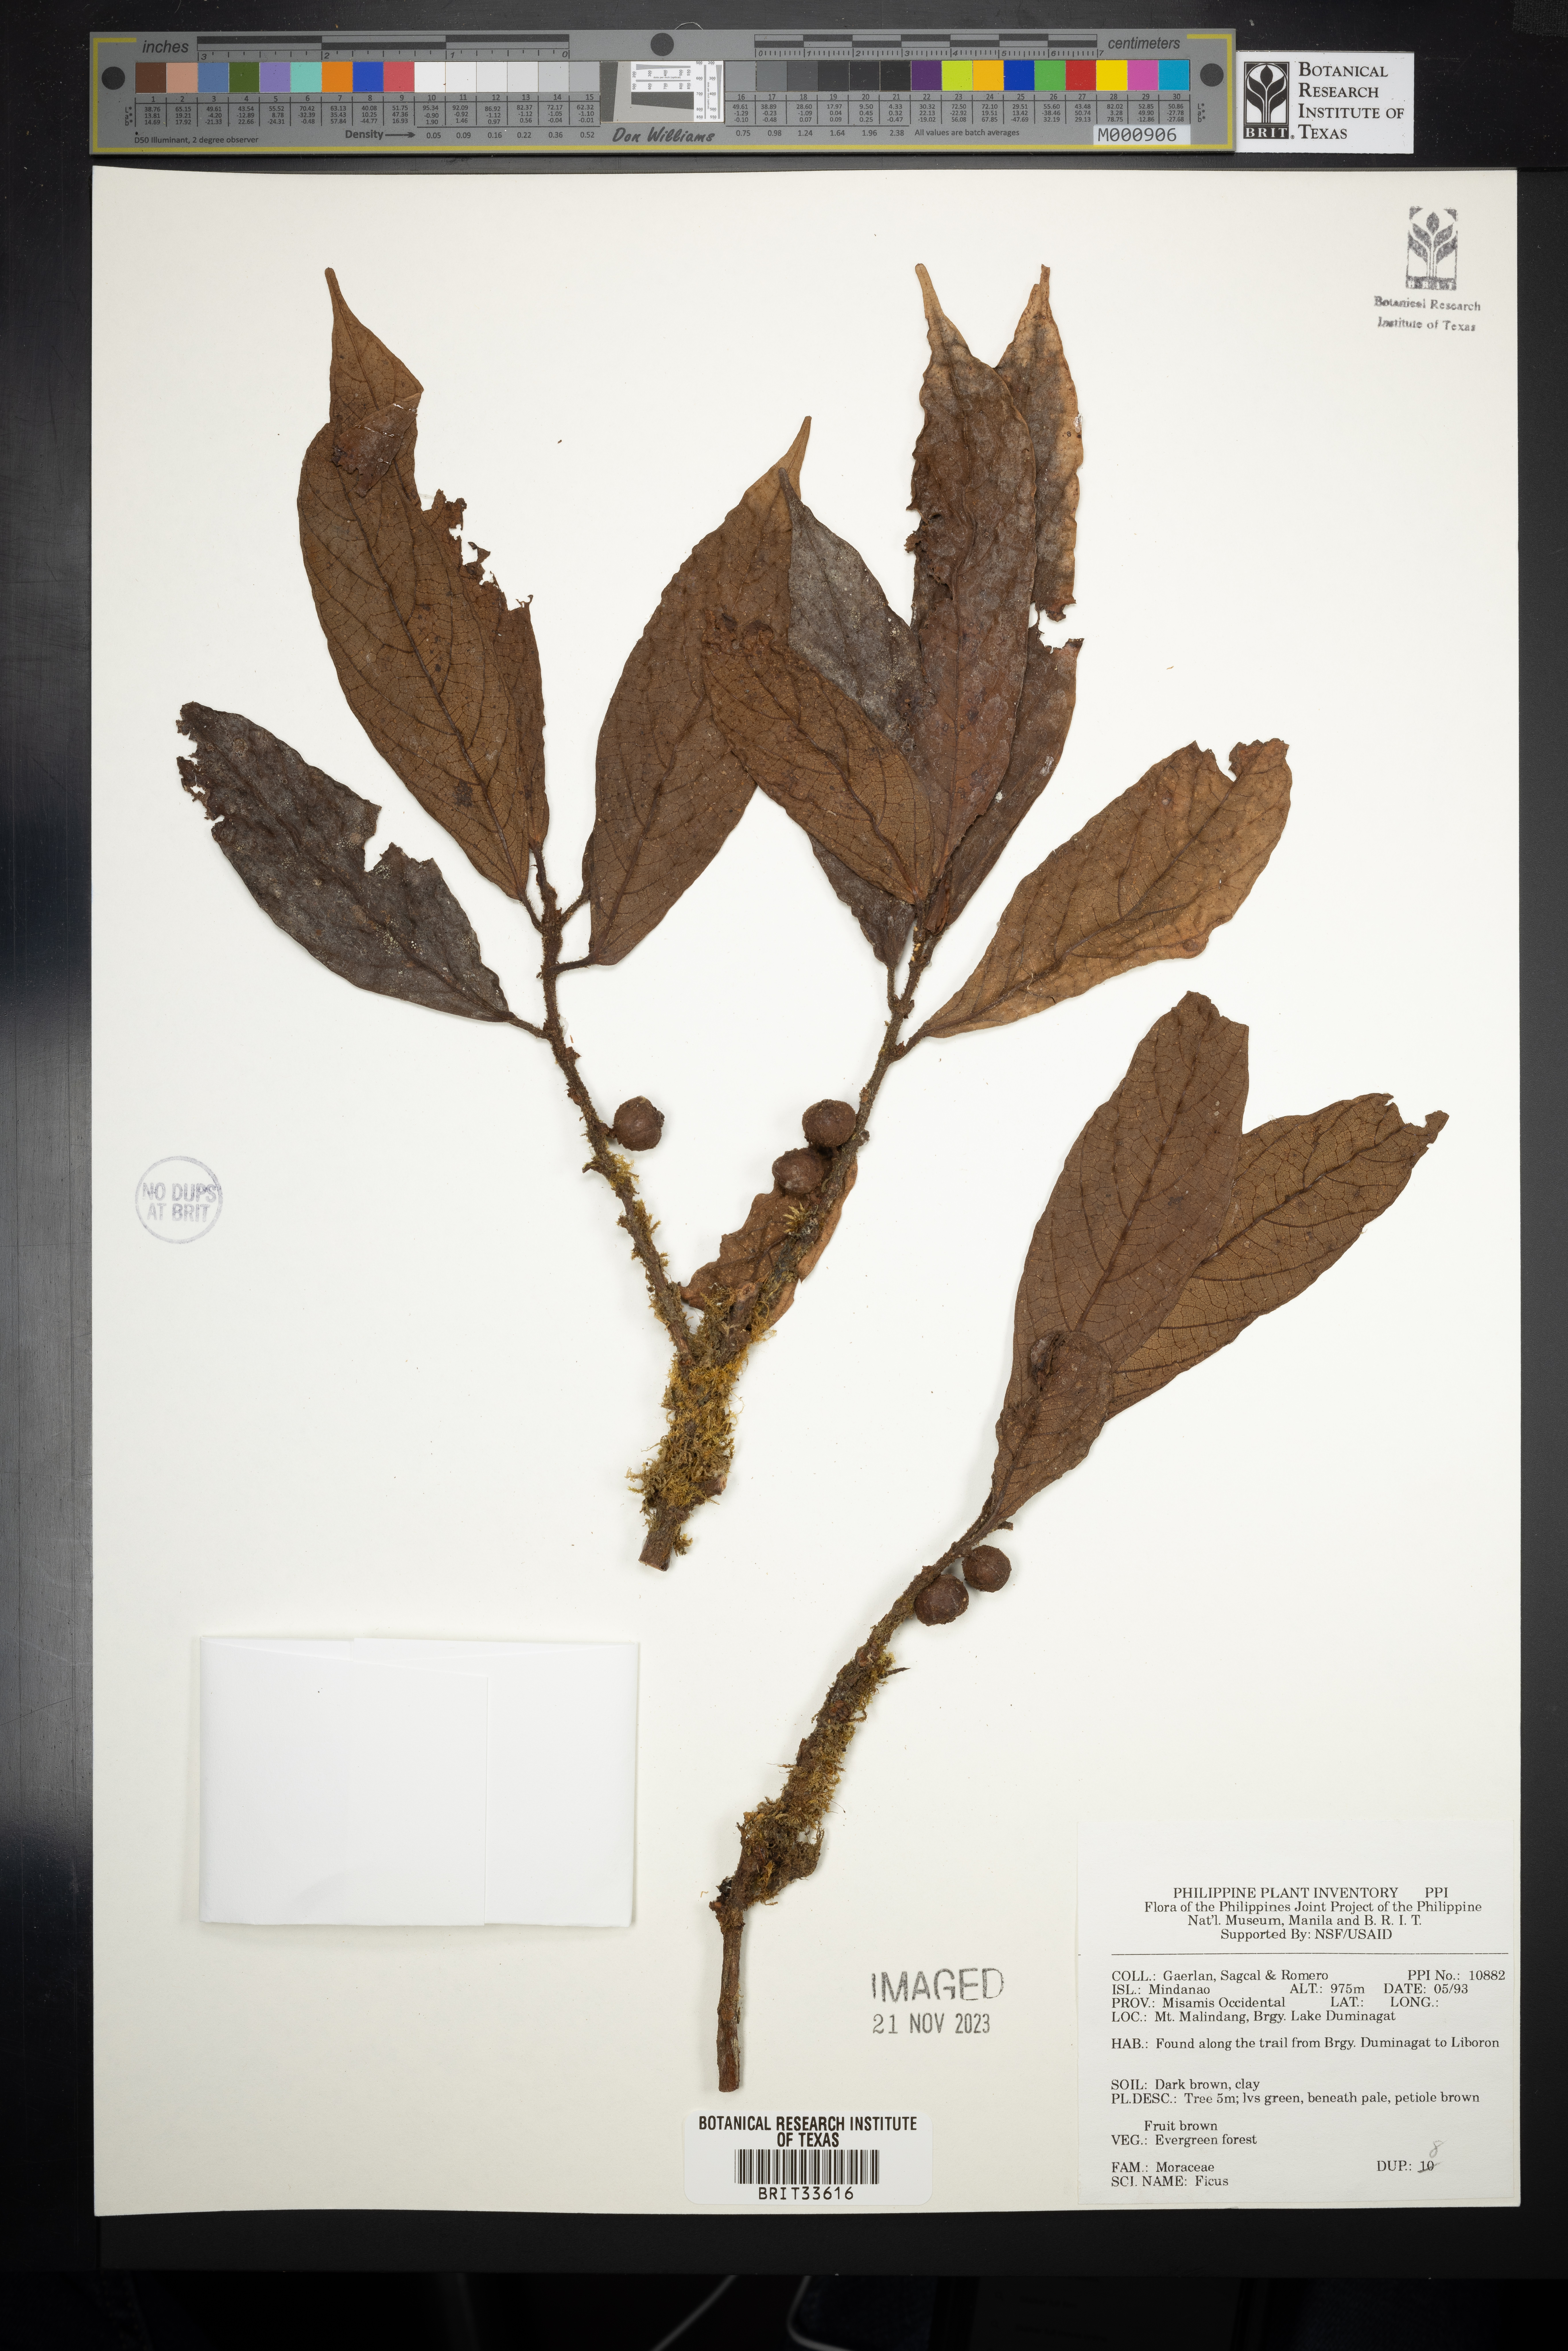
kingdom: Plantae
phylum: Tracheophyta
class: Magnoliopsida
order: Rosales
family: Moraceae
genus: Ficus
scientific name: Ficus
